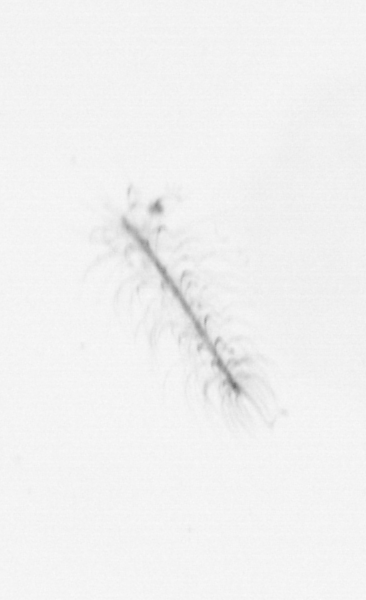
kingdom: Chromista
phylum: Ochrophyta
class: Bacillariophyceae
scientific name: Bacillariophyceae
